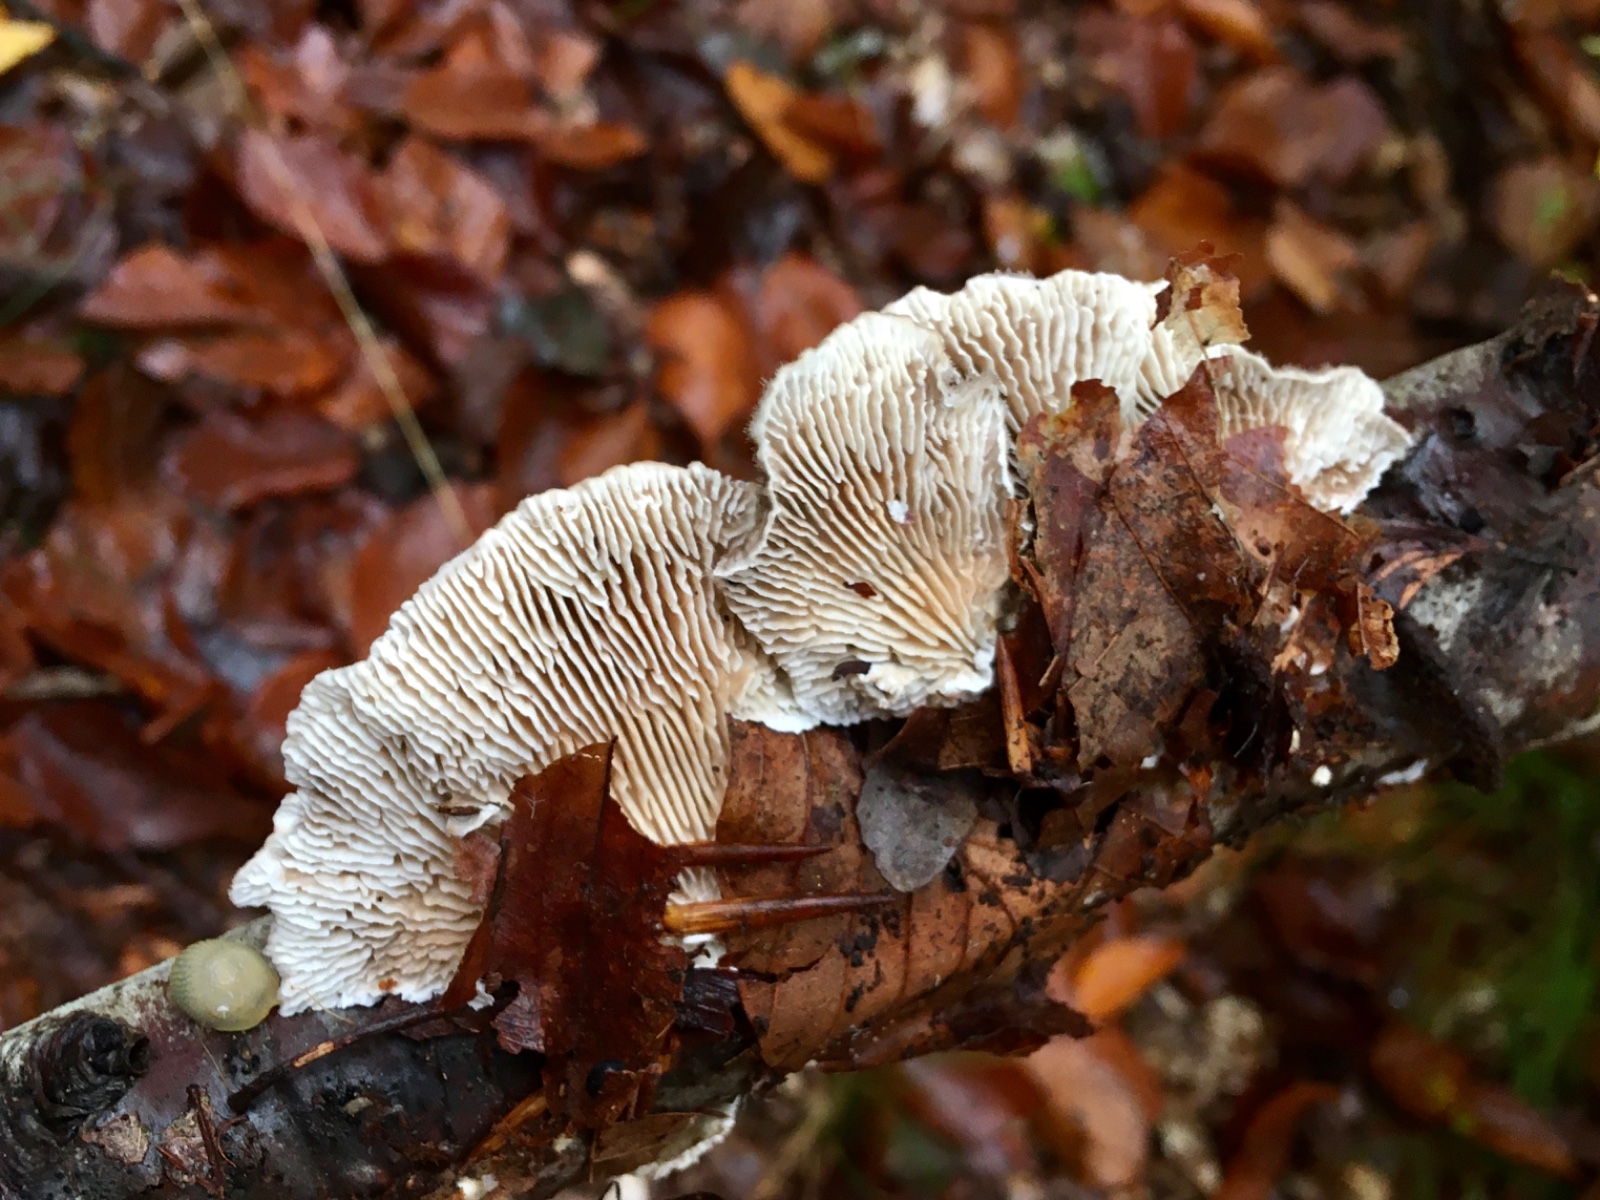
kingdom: Fungi
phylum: Basidiomycota
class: Agaricomycetes
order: Polyporales
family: Polyporaceae
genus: Lenzites
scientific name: Lenzites betulinus
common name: birke-læderporesvamp
